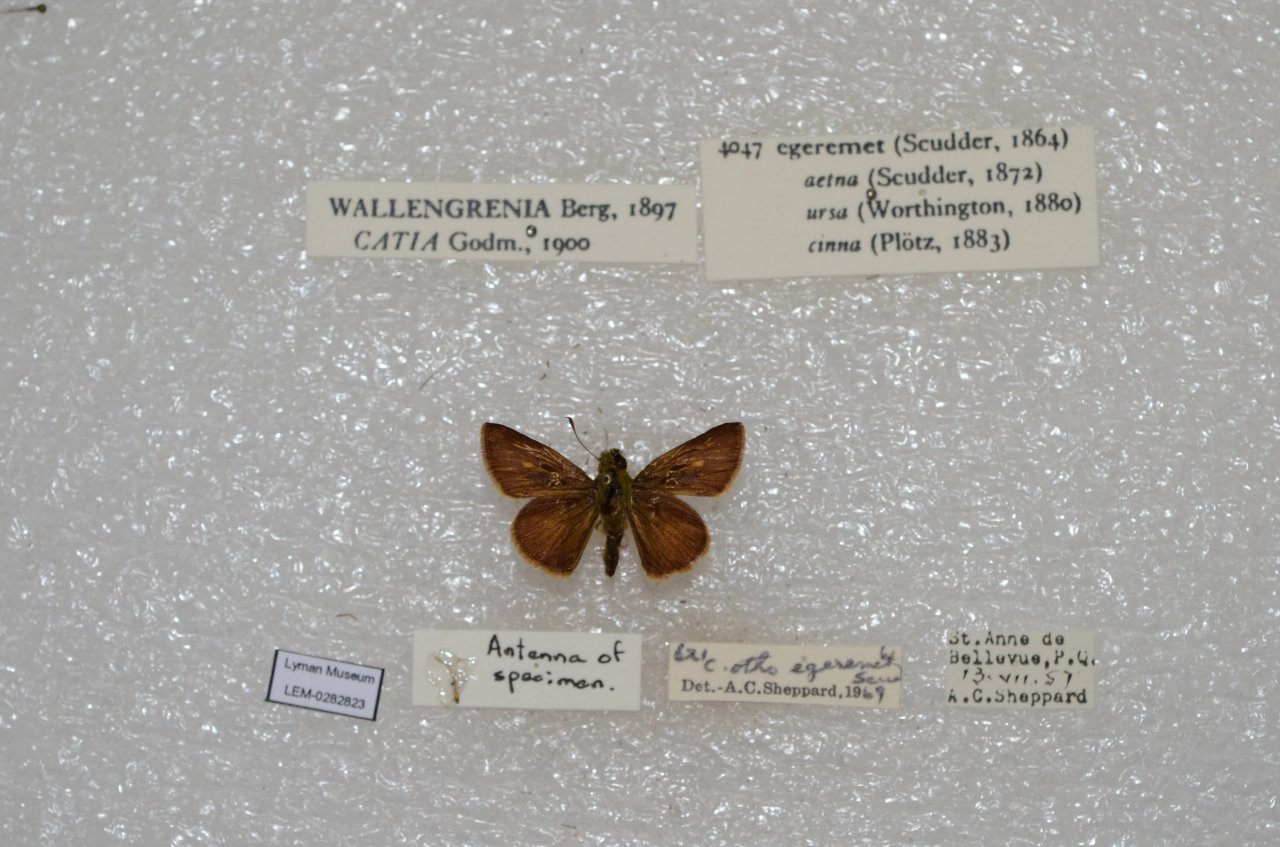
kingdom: Animalia
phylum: Arthropoda
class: Insecta
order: Lepidoptera
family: Hesperiidae
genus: Polites
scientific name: Polites egeremet
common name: Northern Broken-Dash
